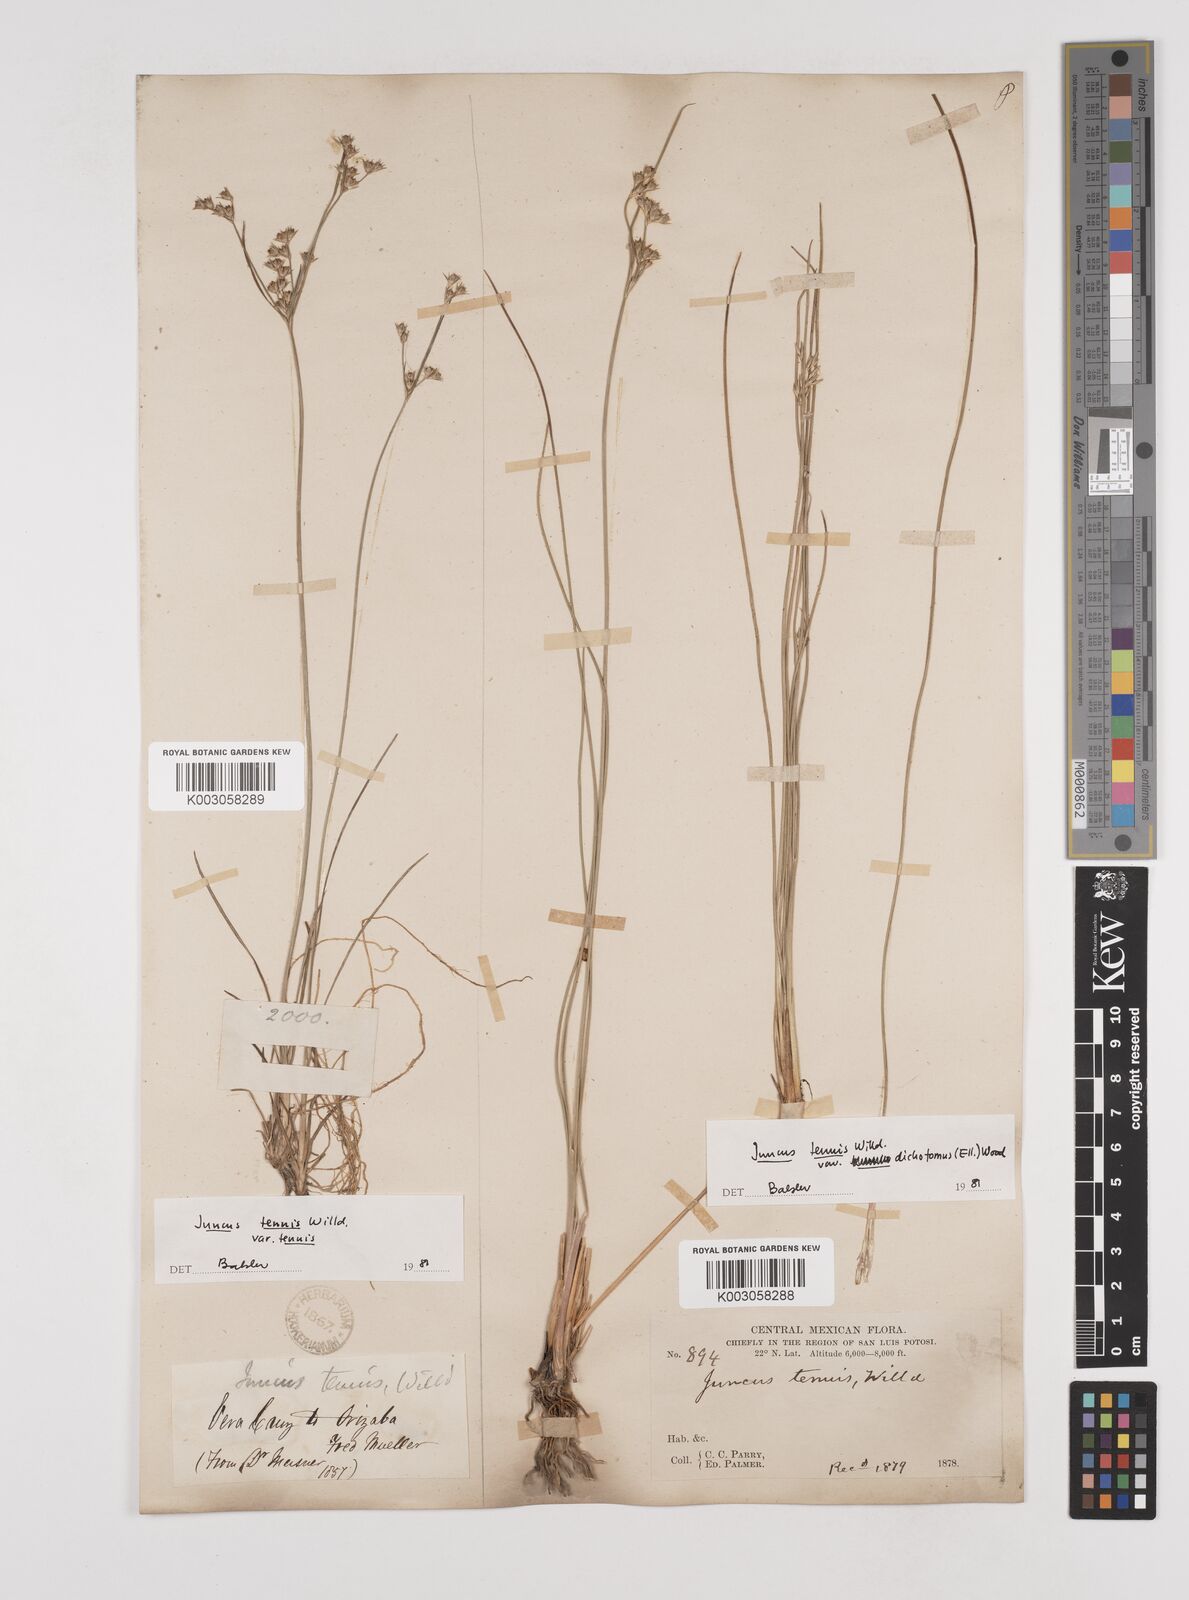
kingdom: Plantae
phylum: Tracheophyta
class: Liliopsida
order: Poales
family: Juncaceae
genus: Juncus
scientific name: Juncus tenuis
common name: Slender rush
